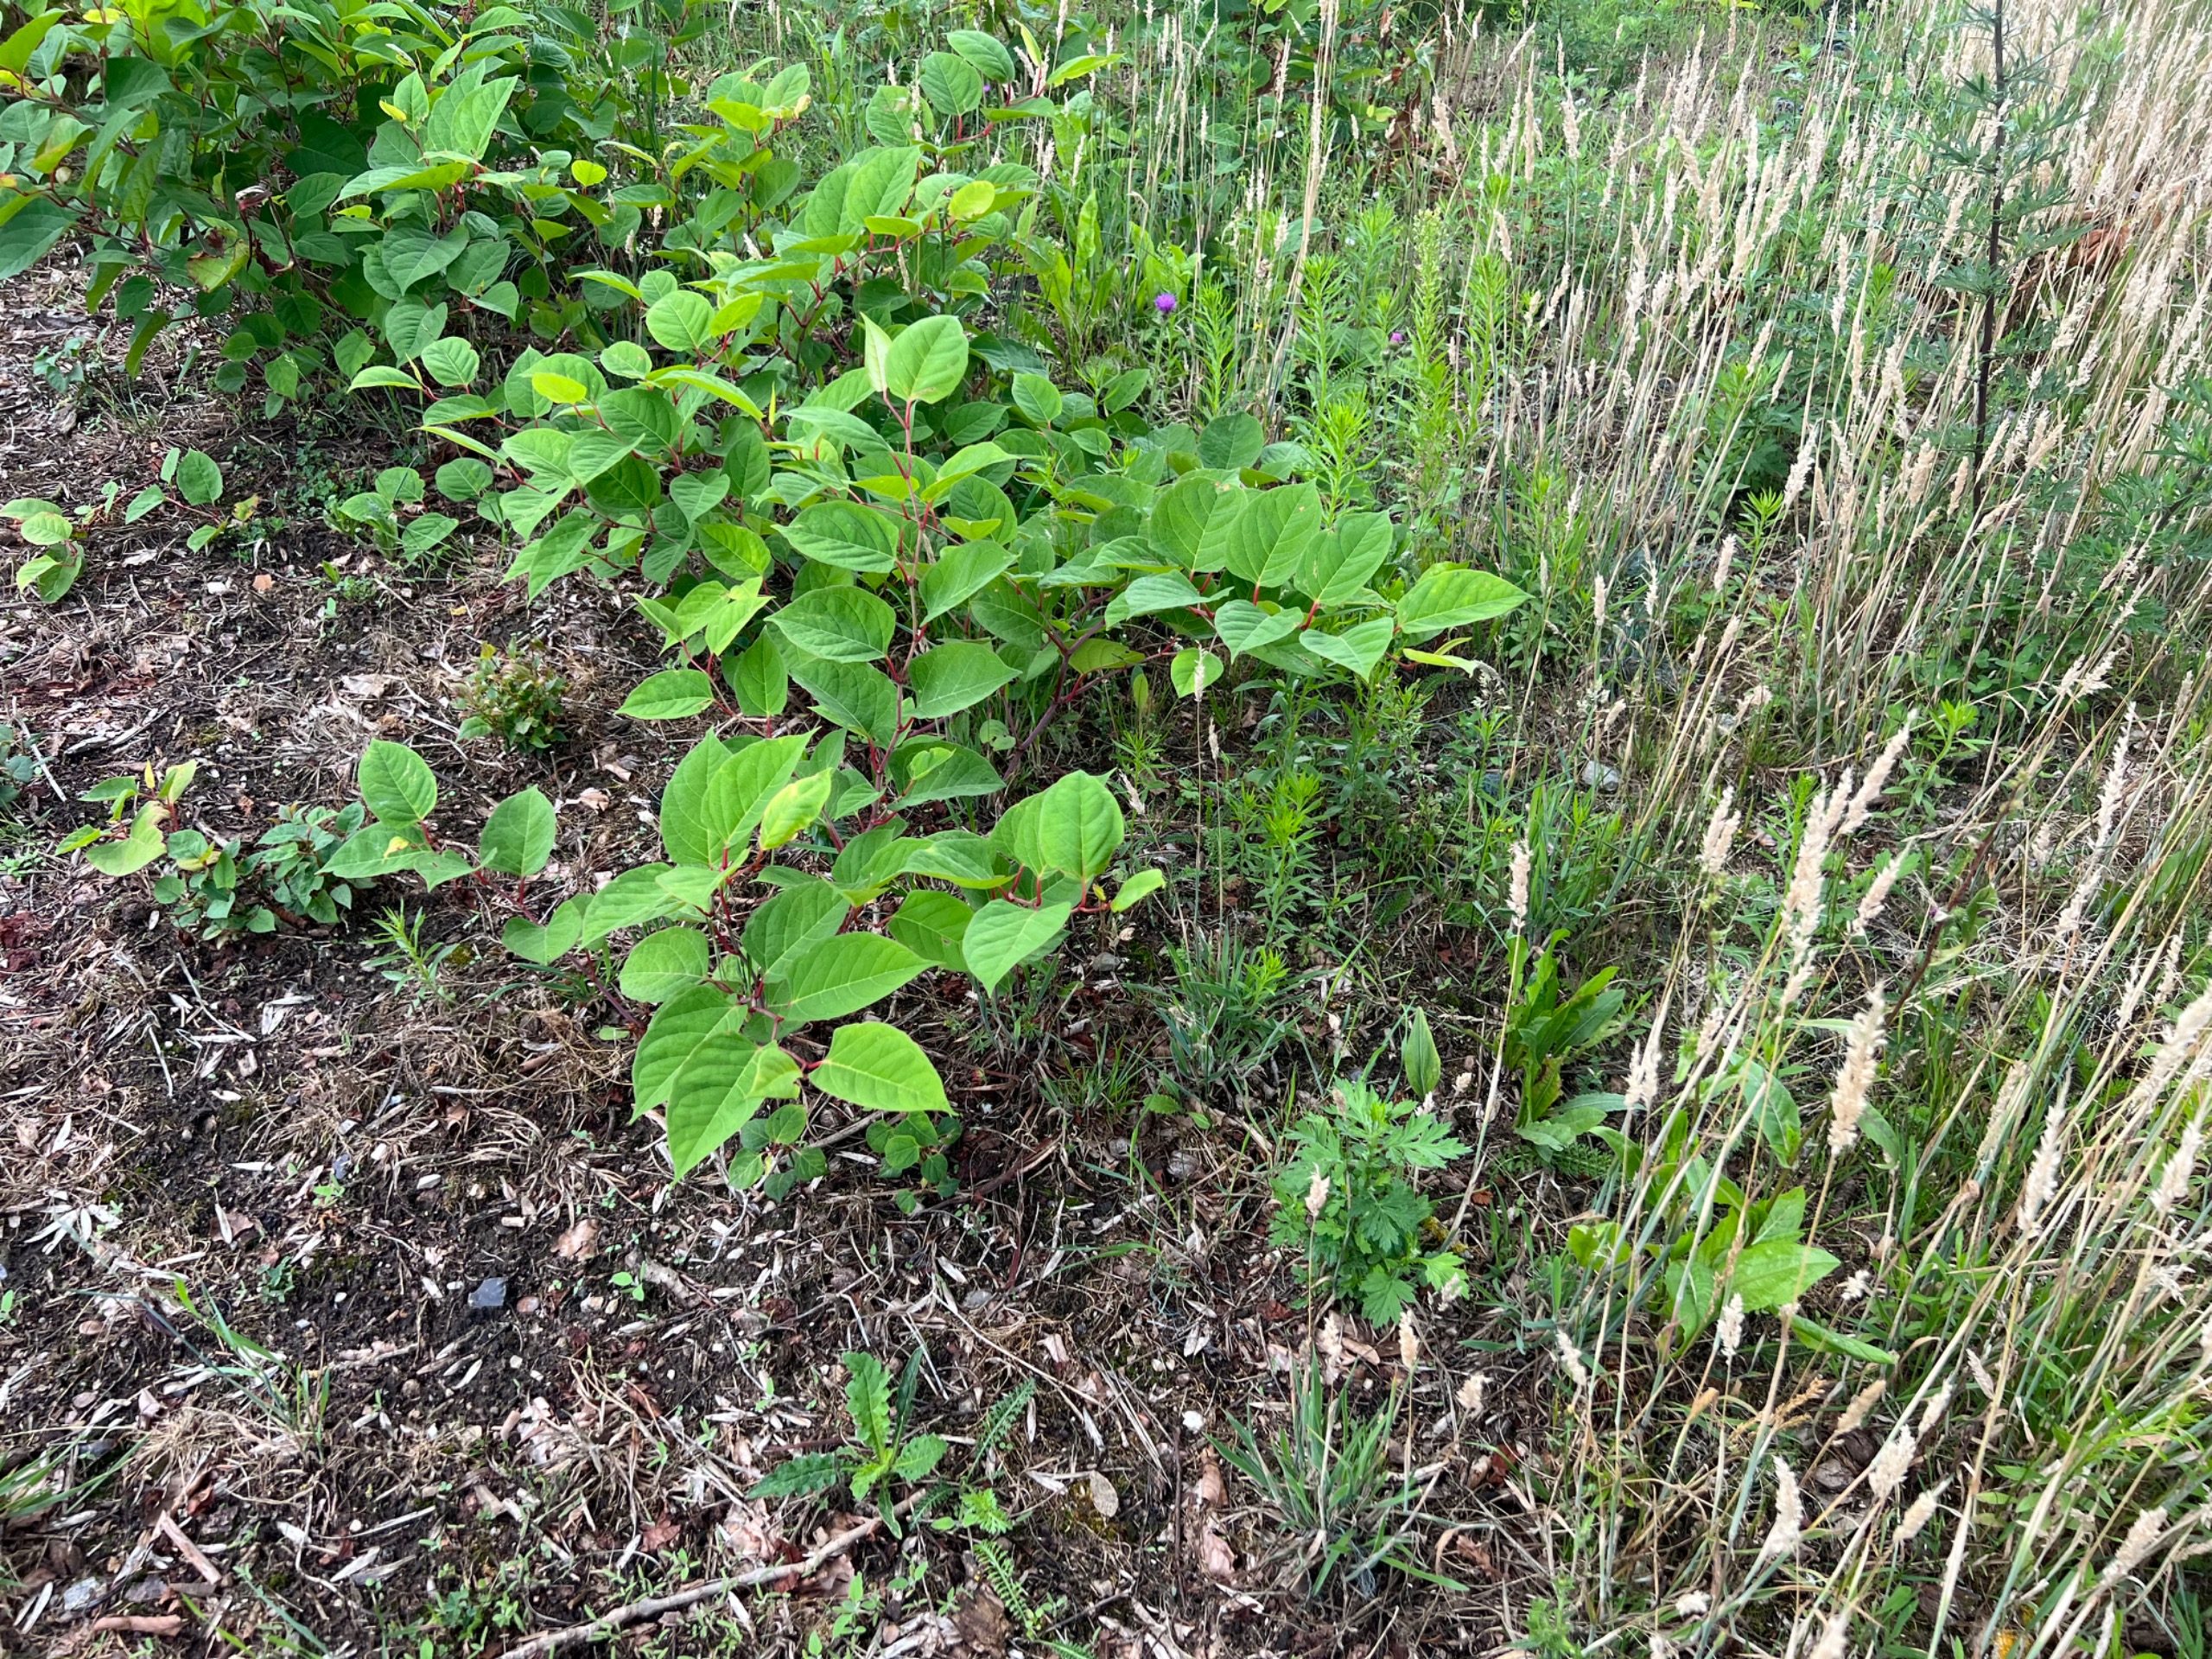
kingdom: Plantae
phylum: Tracheophyta
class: Magnoliopsida
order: Caryophyllales
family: Polygonaceae
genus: Reynoutria
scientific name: Reynoutria japonica
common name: Japan-pileurt
